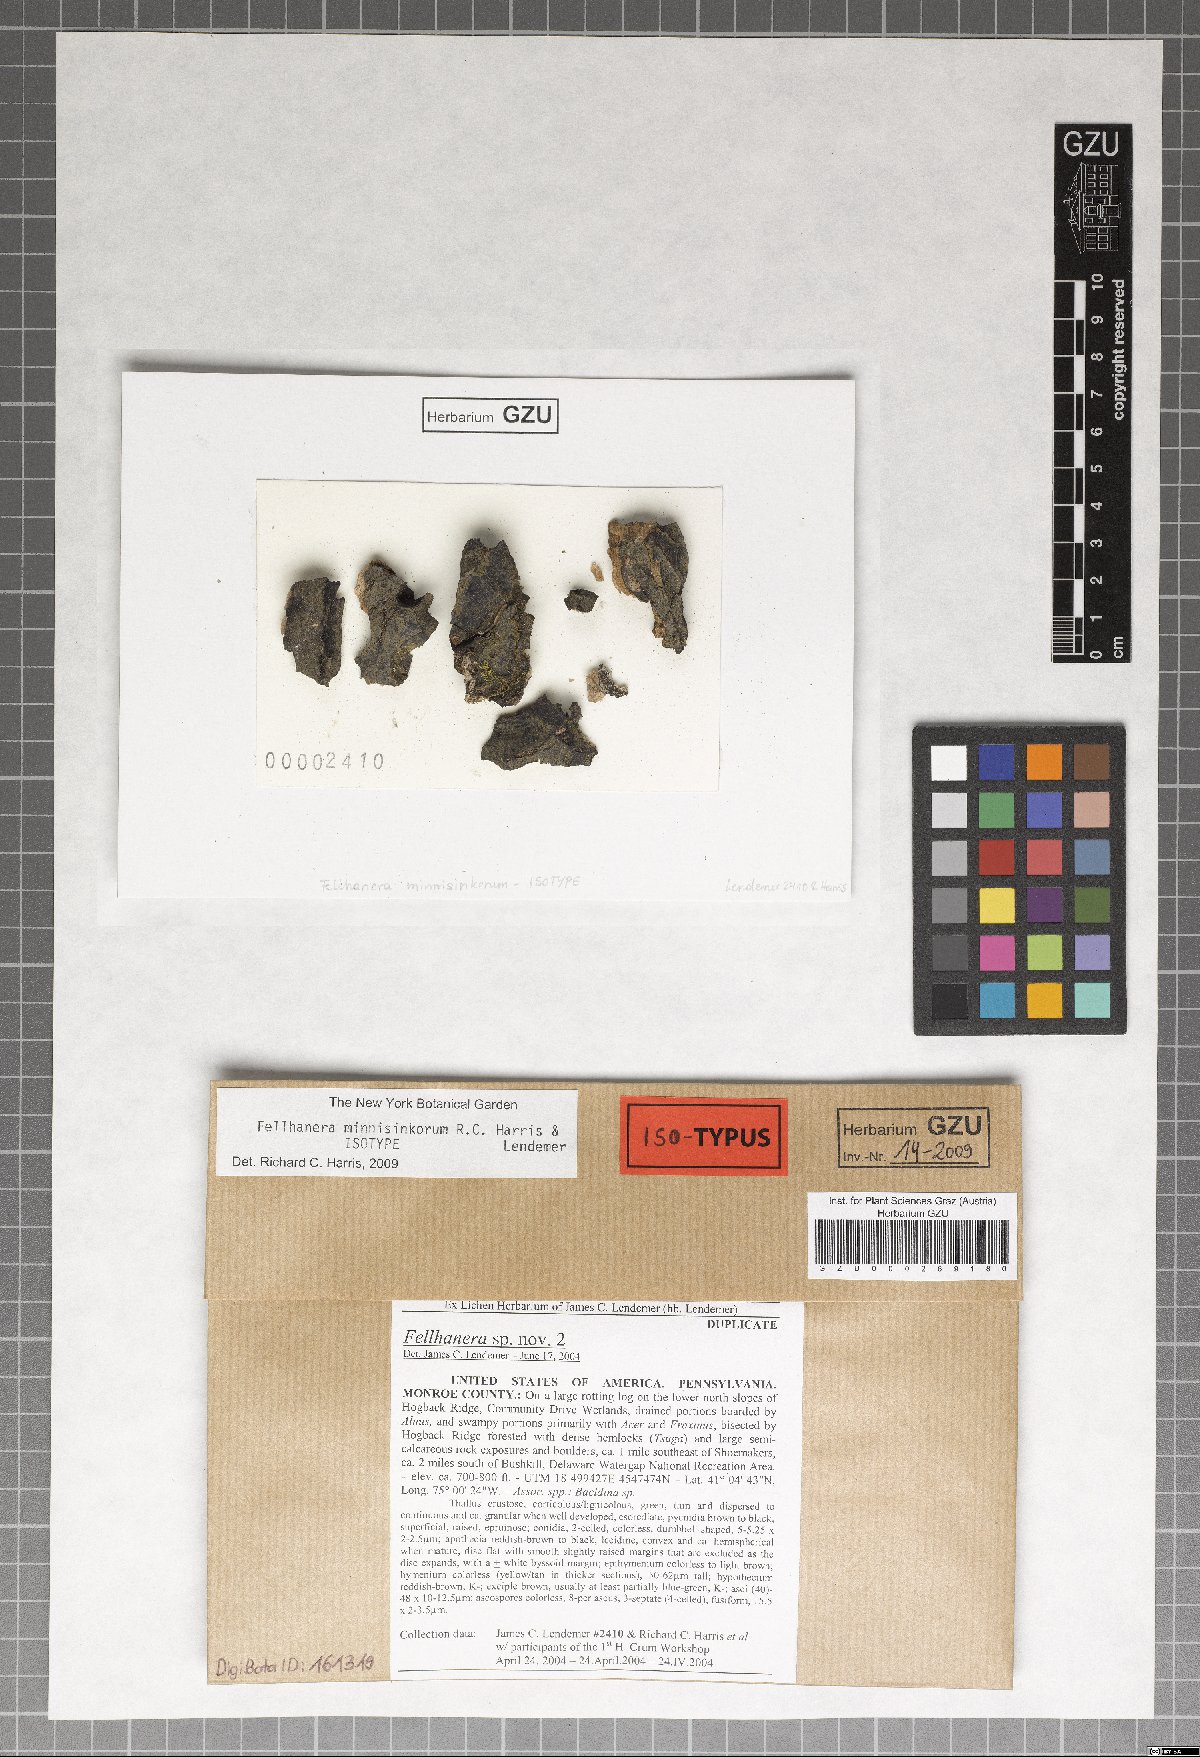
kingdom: Fungi
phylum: Ascomycota
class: Lecanoromycetes
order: Lecanorales
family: Byssolomataceae
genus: Fellhanera
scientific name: Fellhanera minnisinkorum
